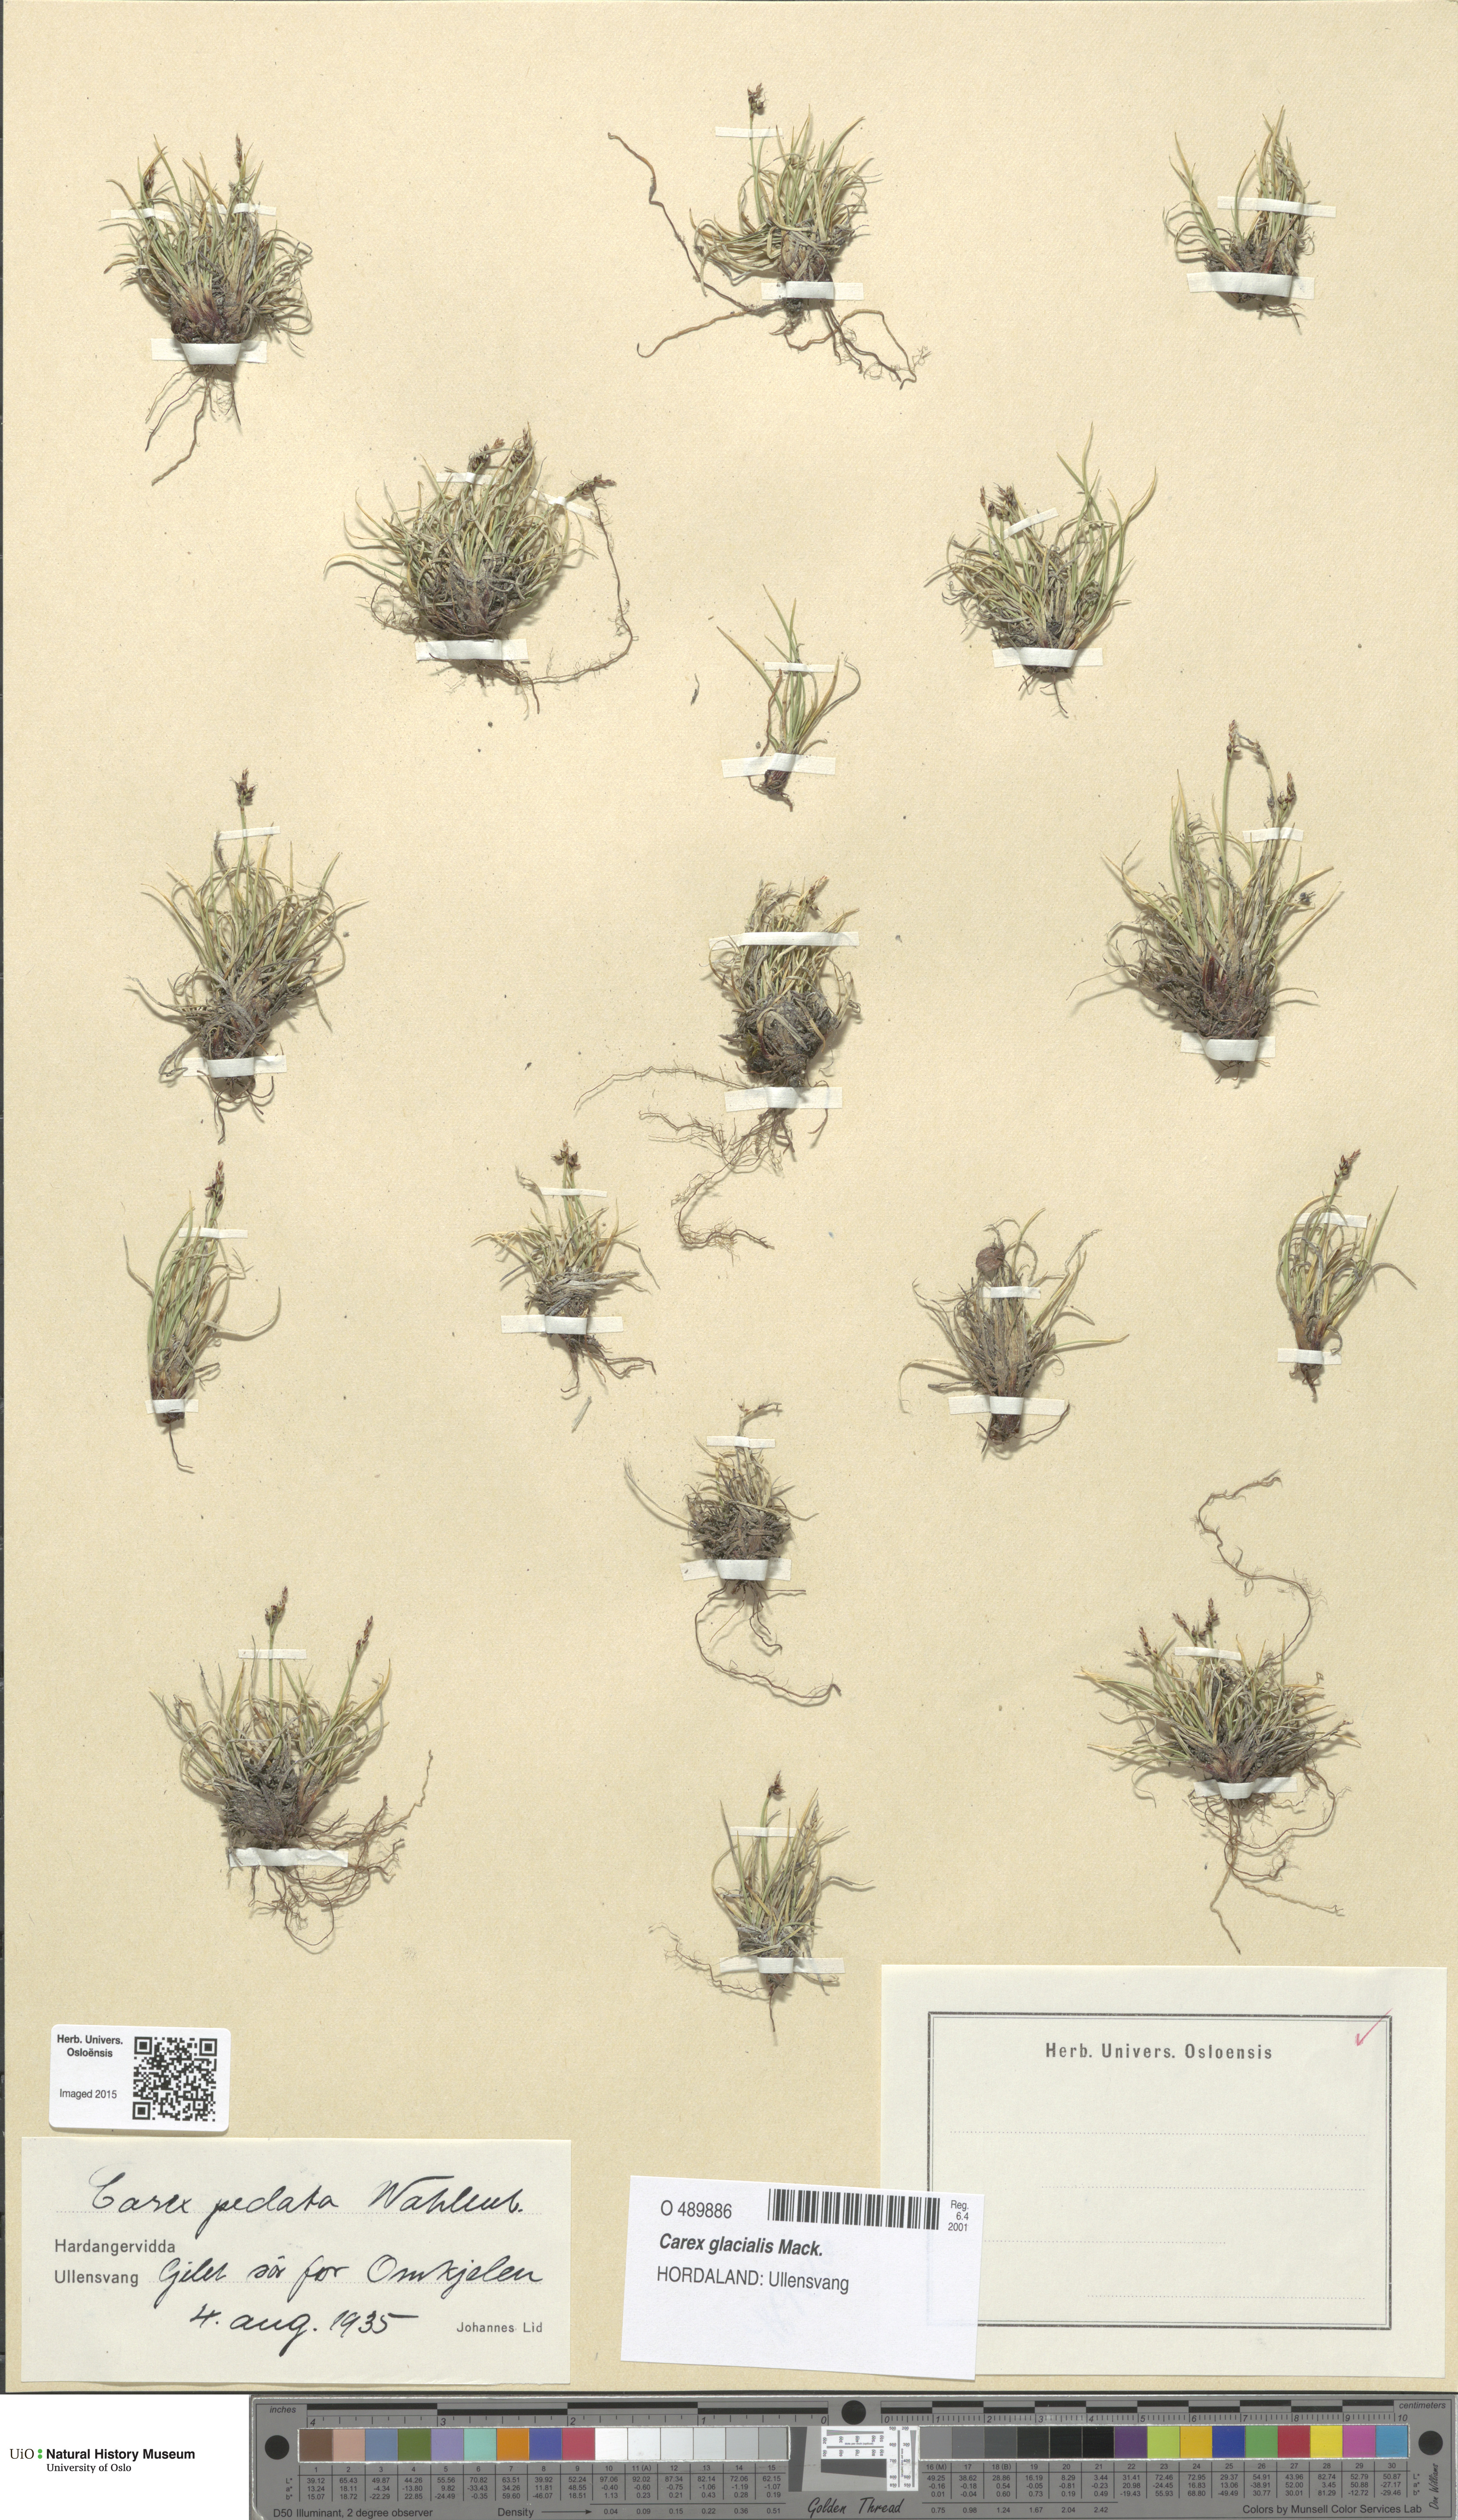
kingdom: Plantae
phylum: Tracheophyta
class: Liliopsida
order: Poales
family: Cyperaceae
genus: Carex
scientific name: Carex glacialis
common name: Newfoundland sedge
